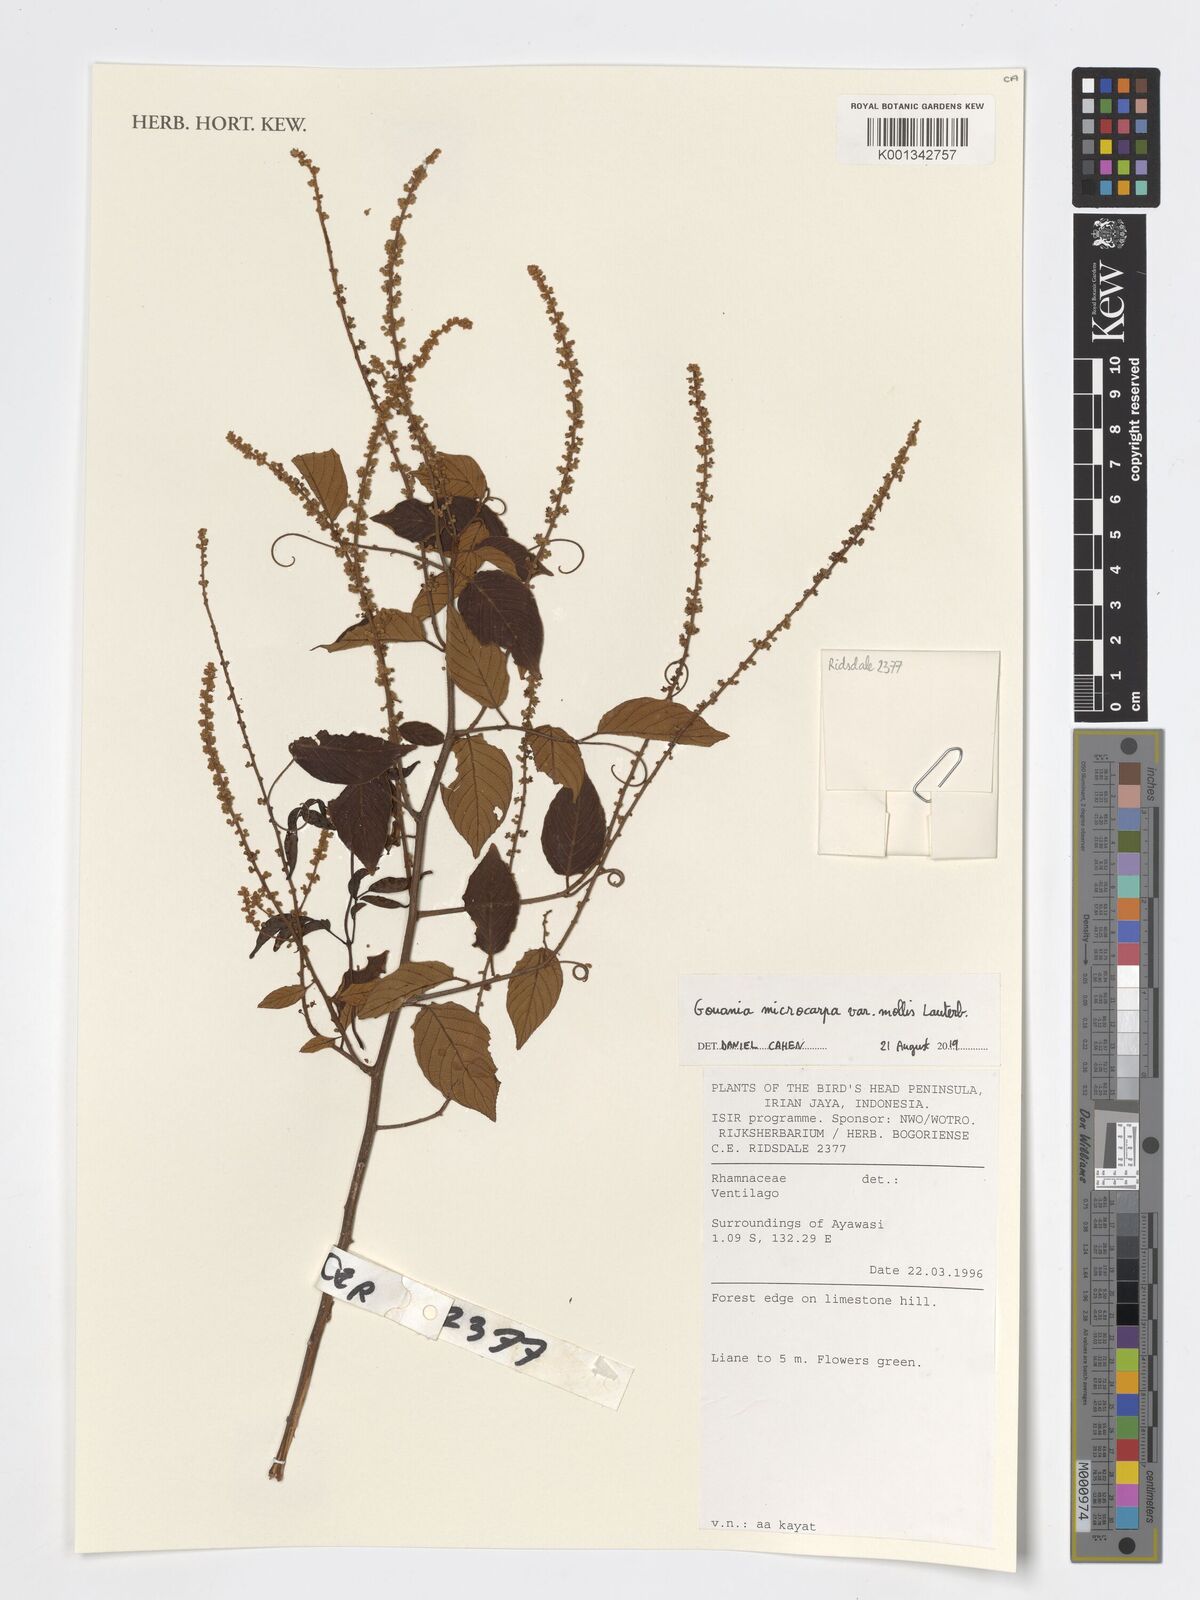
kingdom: Plantae
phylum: Tracheophyta
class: Magnoliopsida
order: Rosales
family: Rhamnaceae
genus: Gouania
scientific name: Gouania microcarpa
